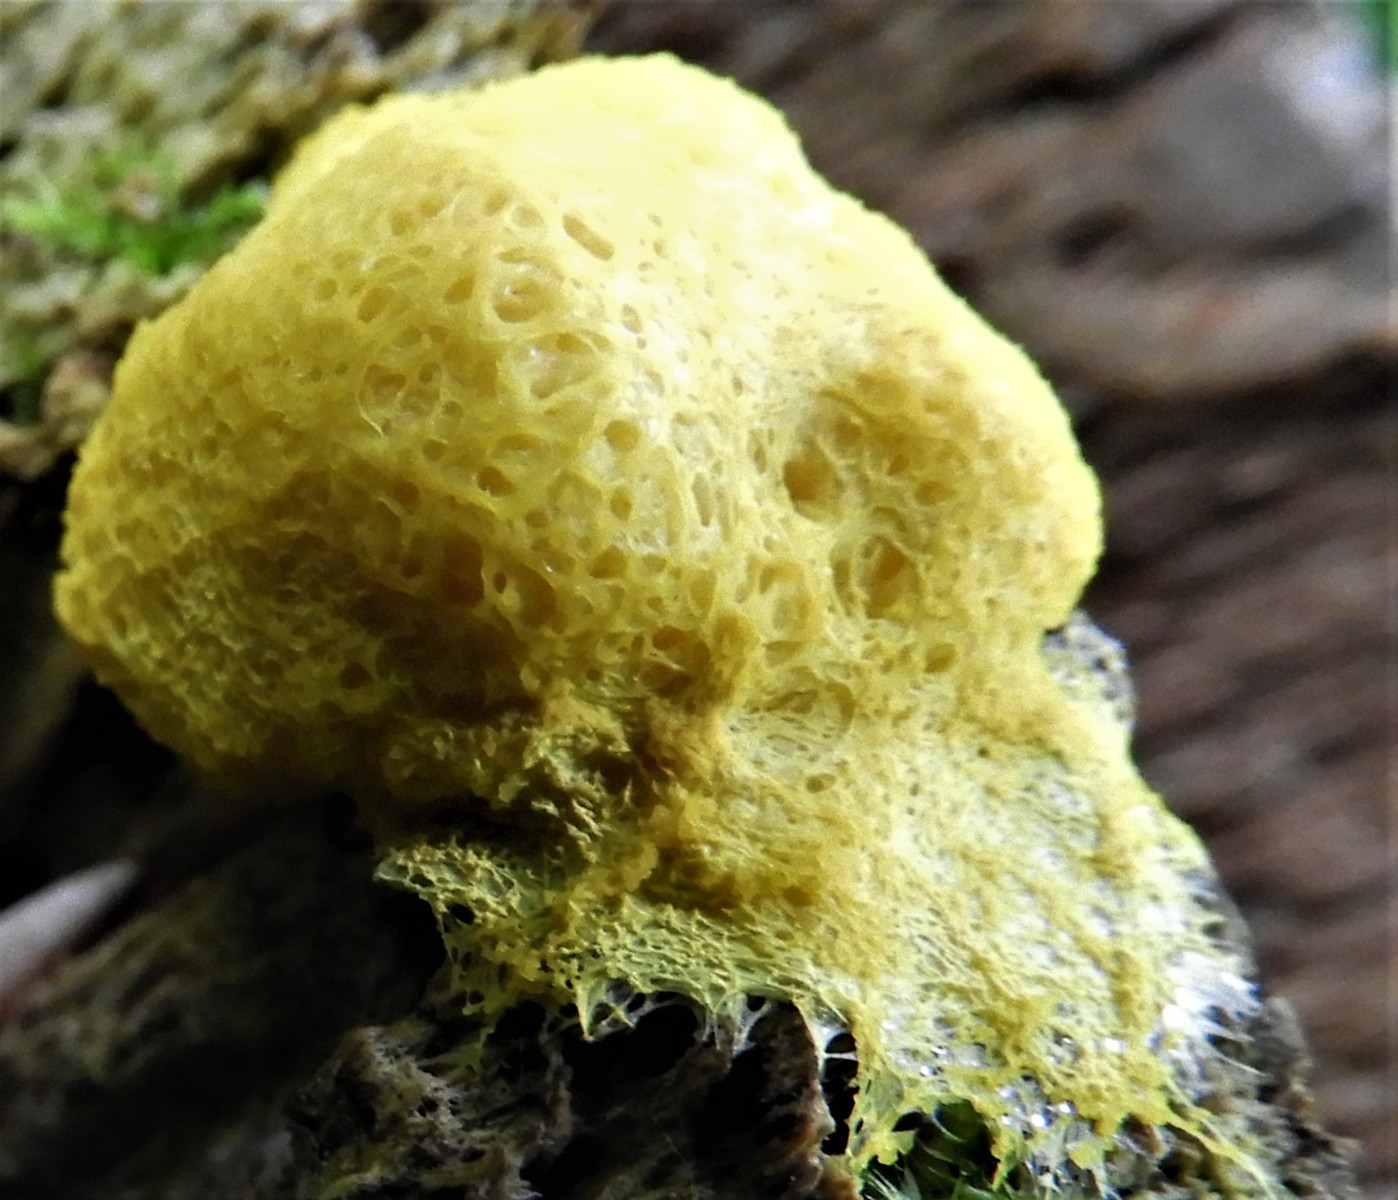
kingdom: Protozoa
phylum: Mycetozoa
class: Myxomycetes
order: Physarales
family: Physaraceae
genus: Fuligo
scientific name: Fuligo septica
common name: gul troldsmør
